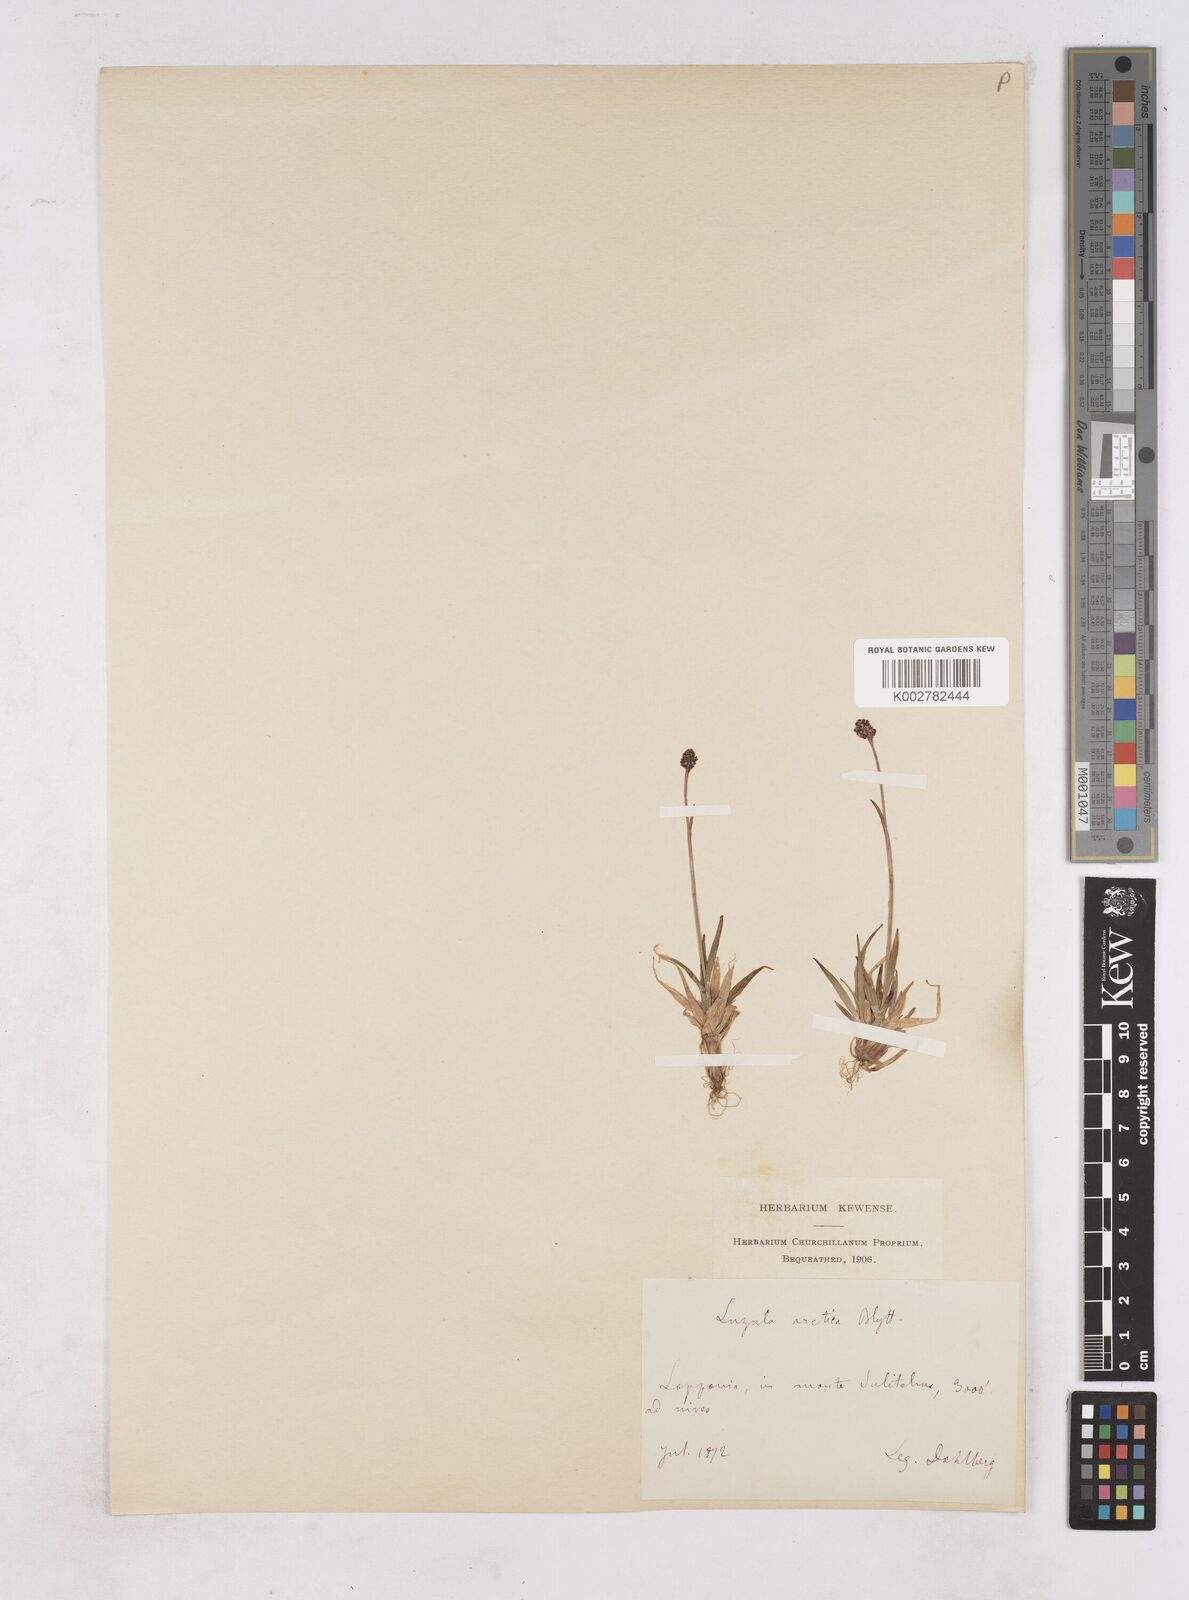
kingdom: Plantae
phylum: Tracheophyta
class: Liliopsida
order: Poales
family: Juncaceae
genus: Luzula
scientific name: Luzula nivalis
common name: Arctic woodrush
